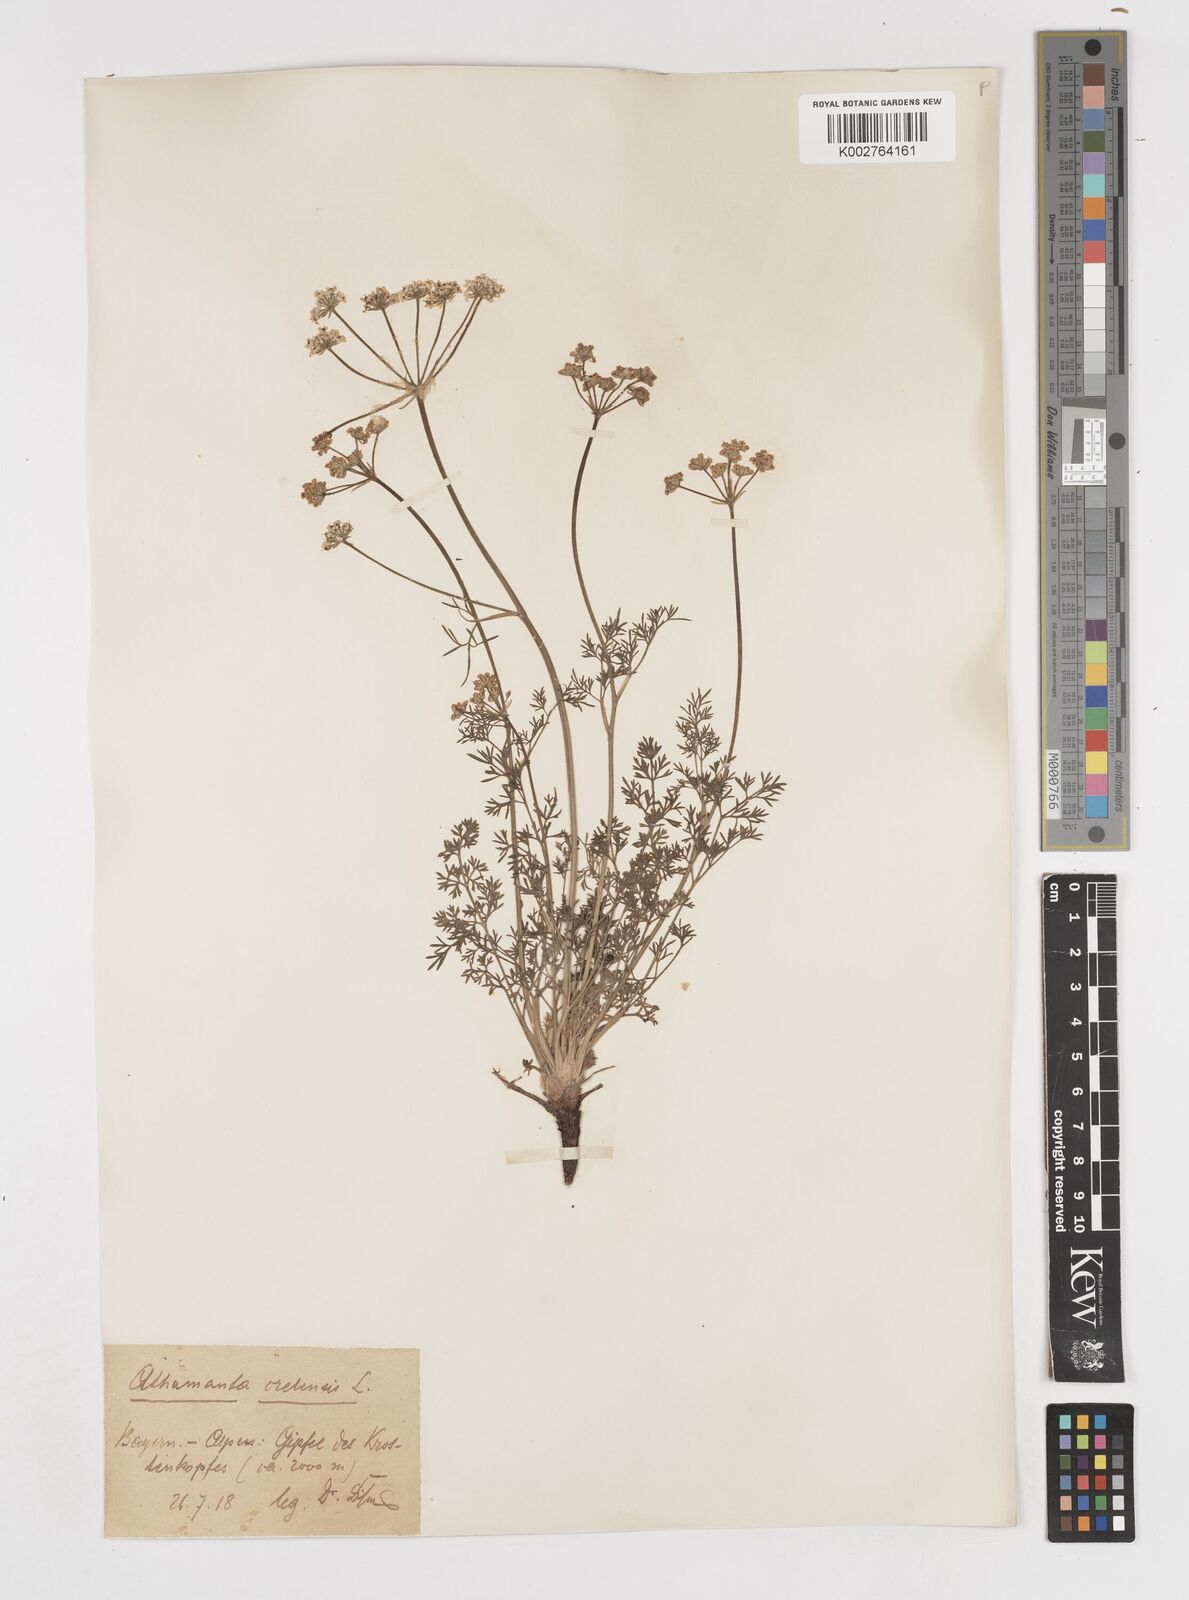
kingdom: Plantae
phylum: Tracheophyta
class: Magnoliopsida
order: Apiales
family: Apiaceae
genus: Athamanta
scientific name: Athamanta cretensis
